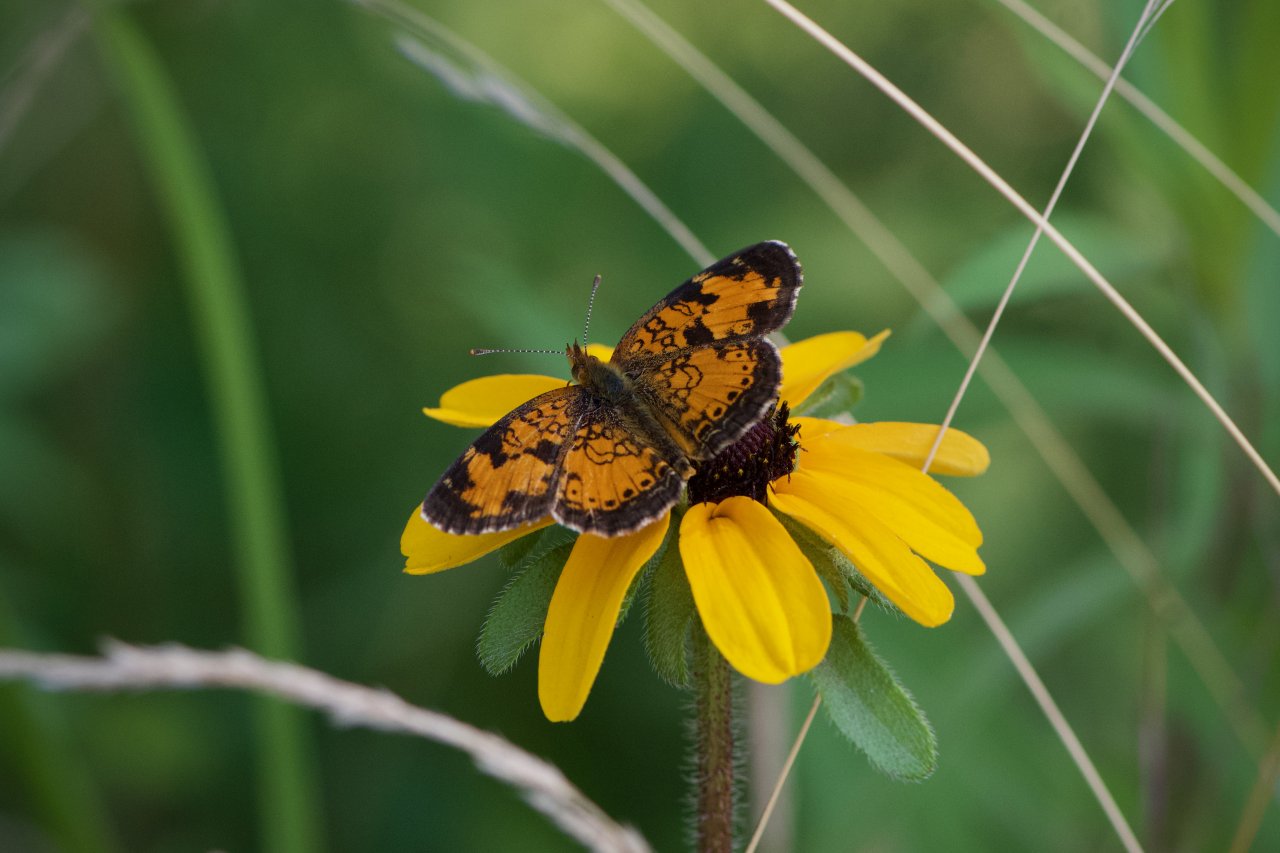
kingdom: Animalia
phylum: Arthropoda
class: Insecta
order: Lepidoptera
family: Nymphalidae
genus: Phyciodes
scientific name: Phyciodes tharos
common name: Northern Crescent
